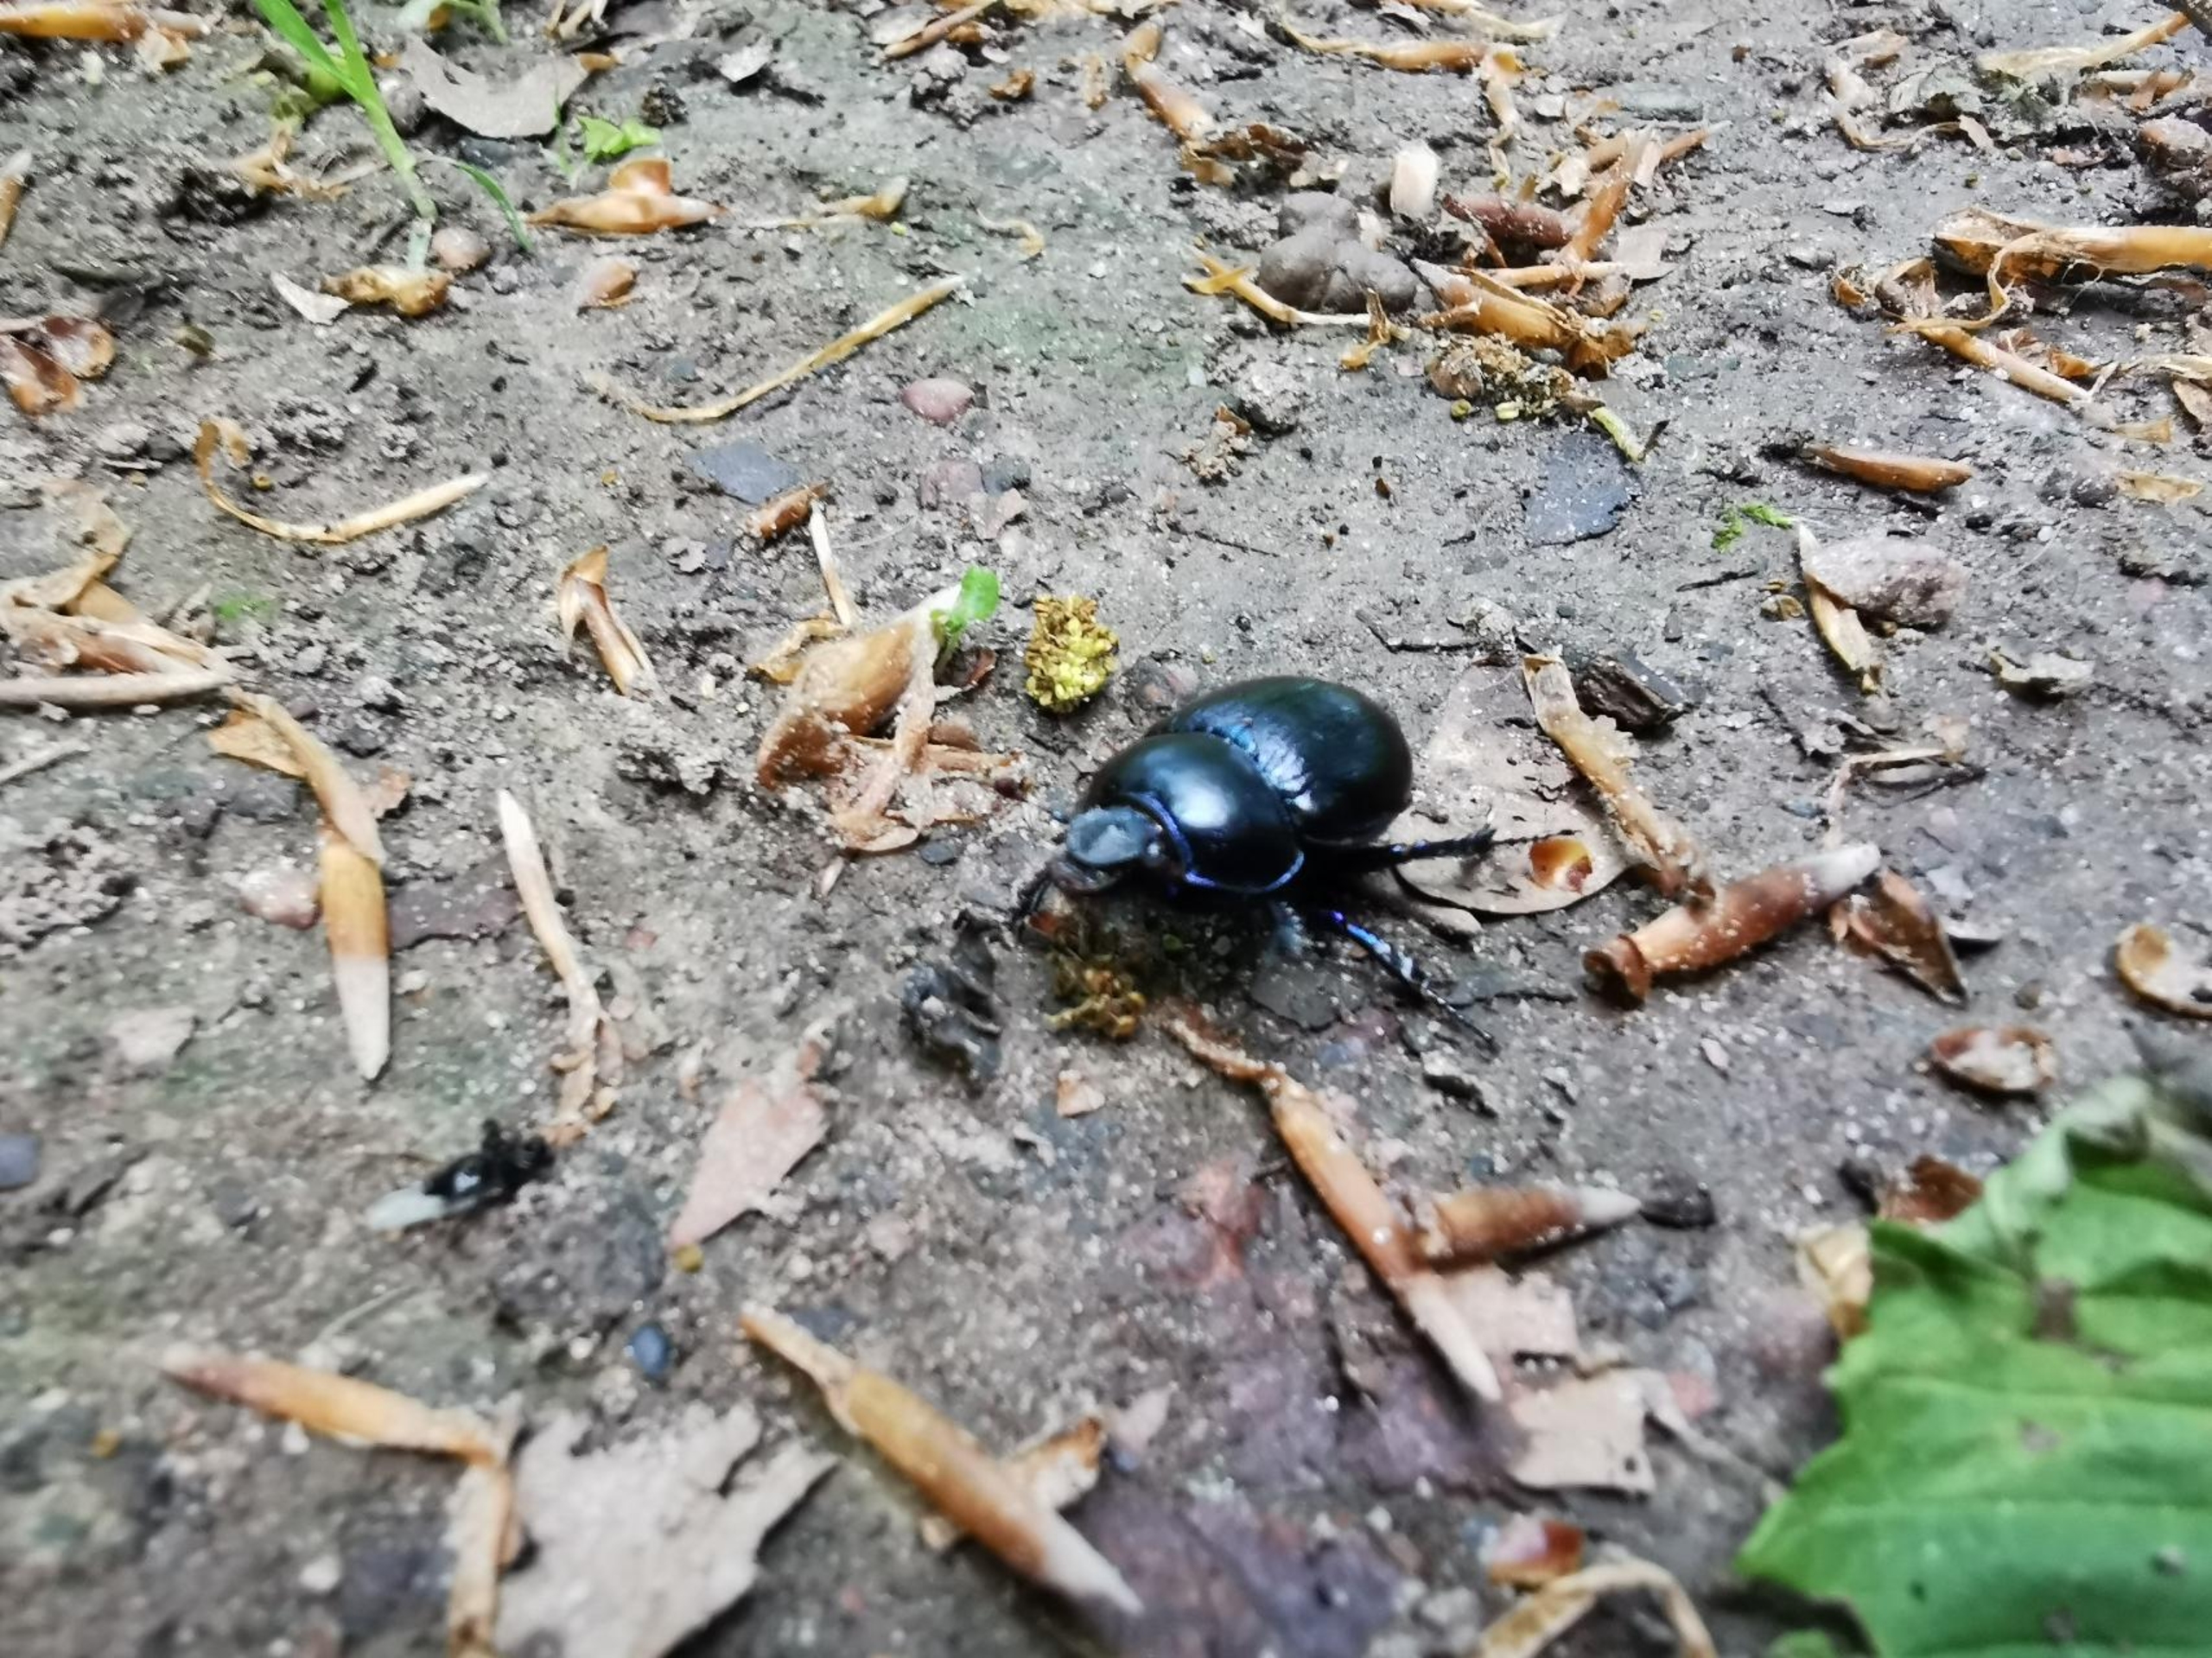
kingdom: Animalia
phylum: Arthropoda
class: Insecta
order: Coleoptera
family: Geotrupidae
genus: Anoplotrupes
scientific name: Anoplotrupes stercorosus
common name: Skovskarnbasse
